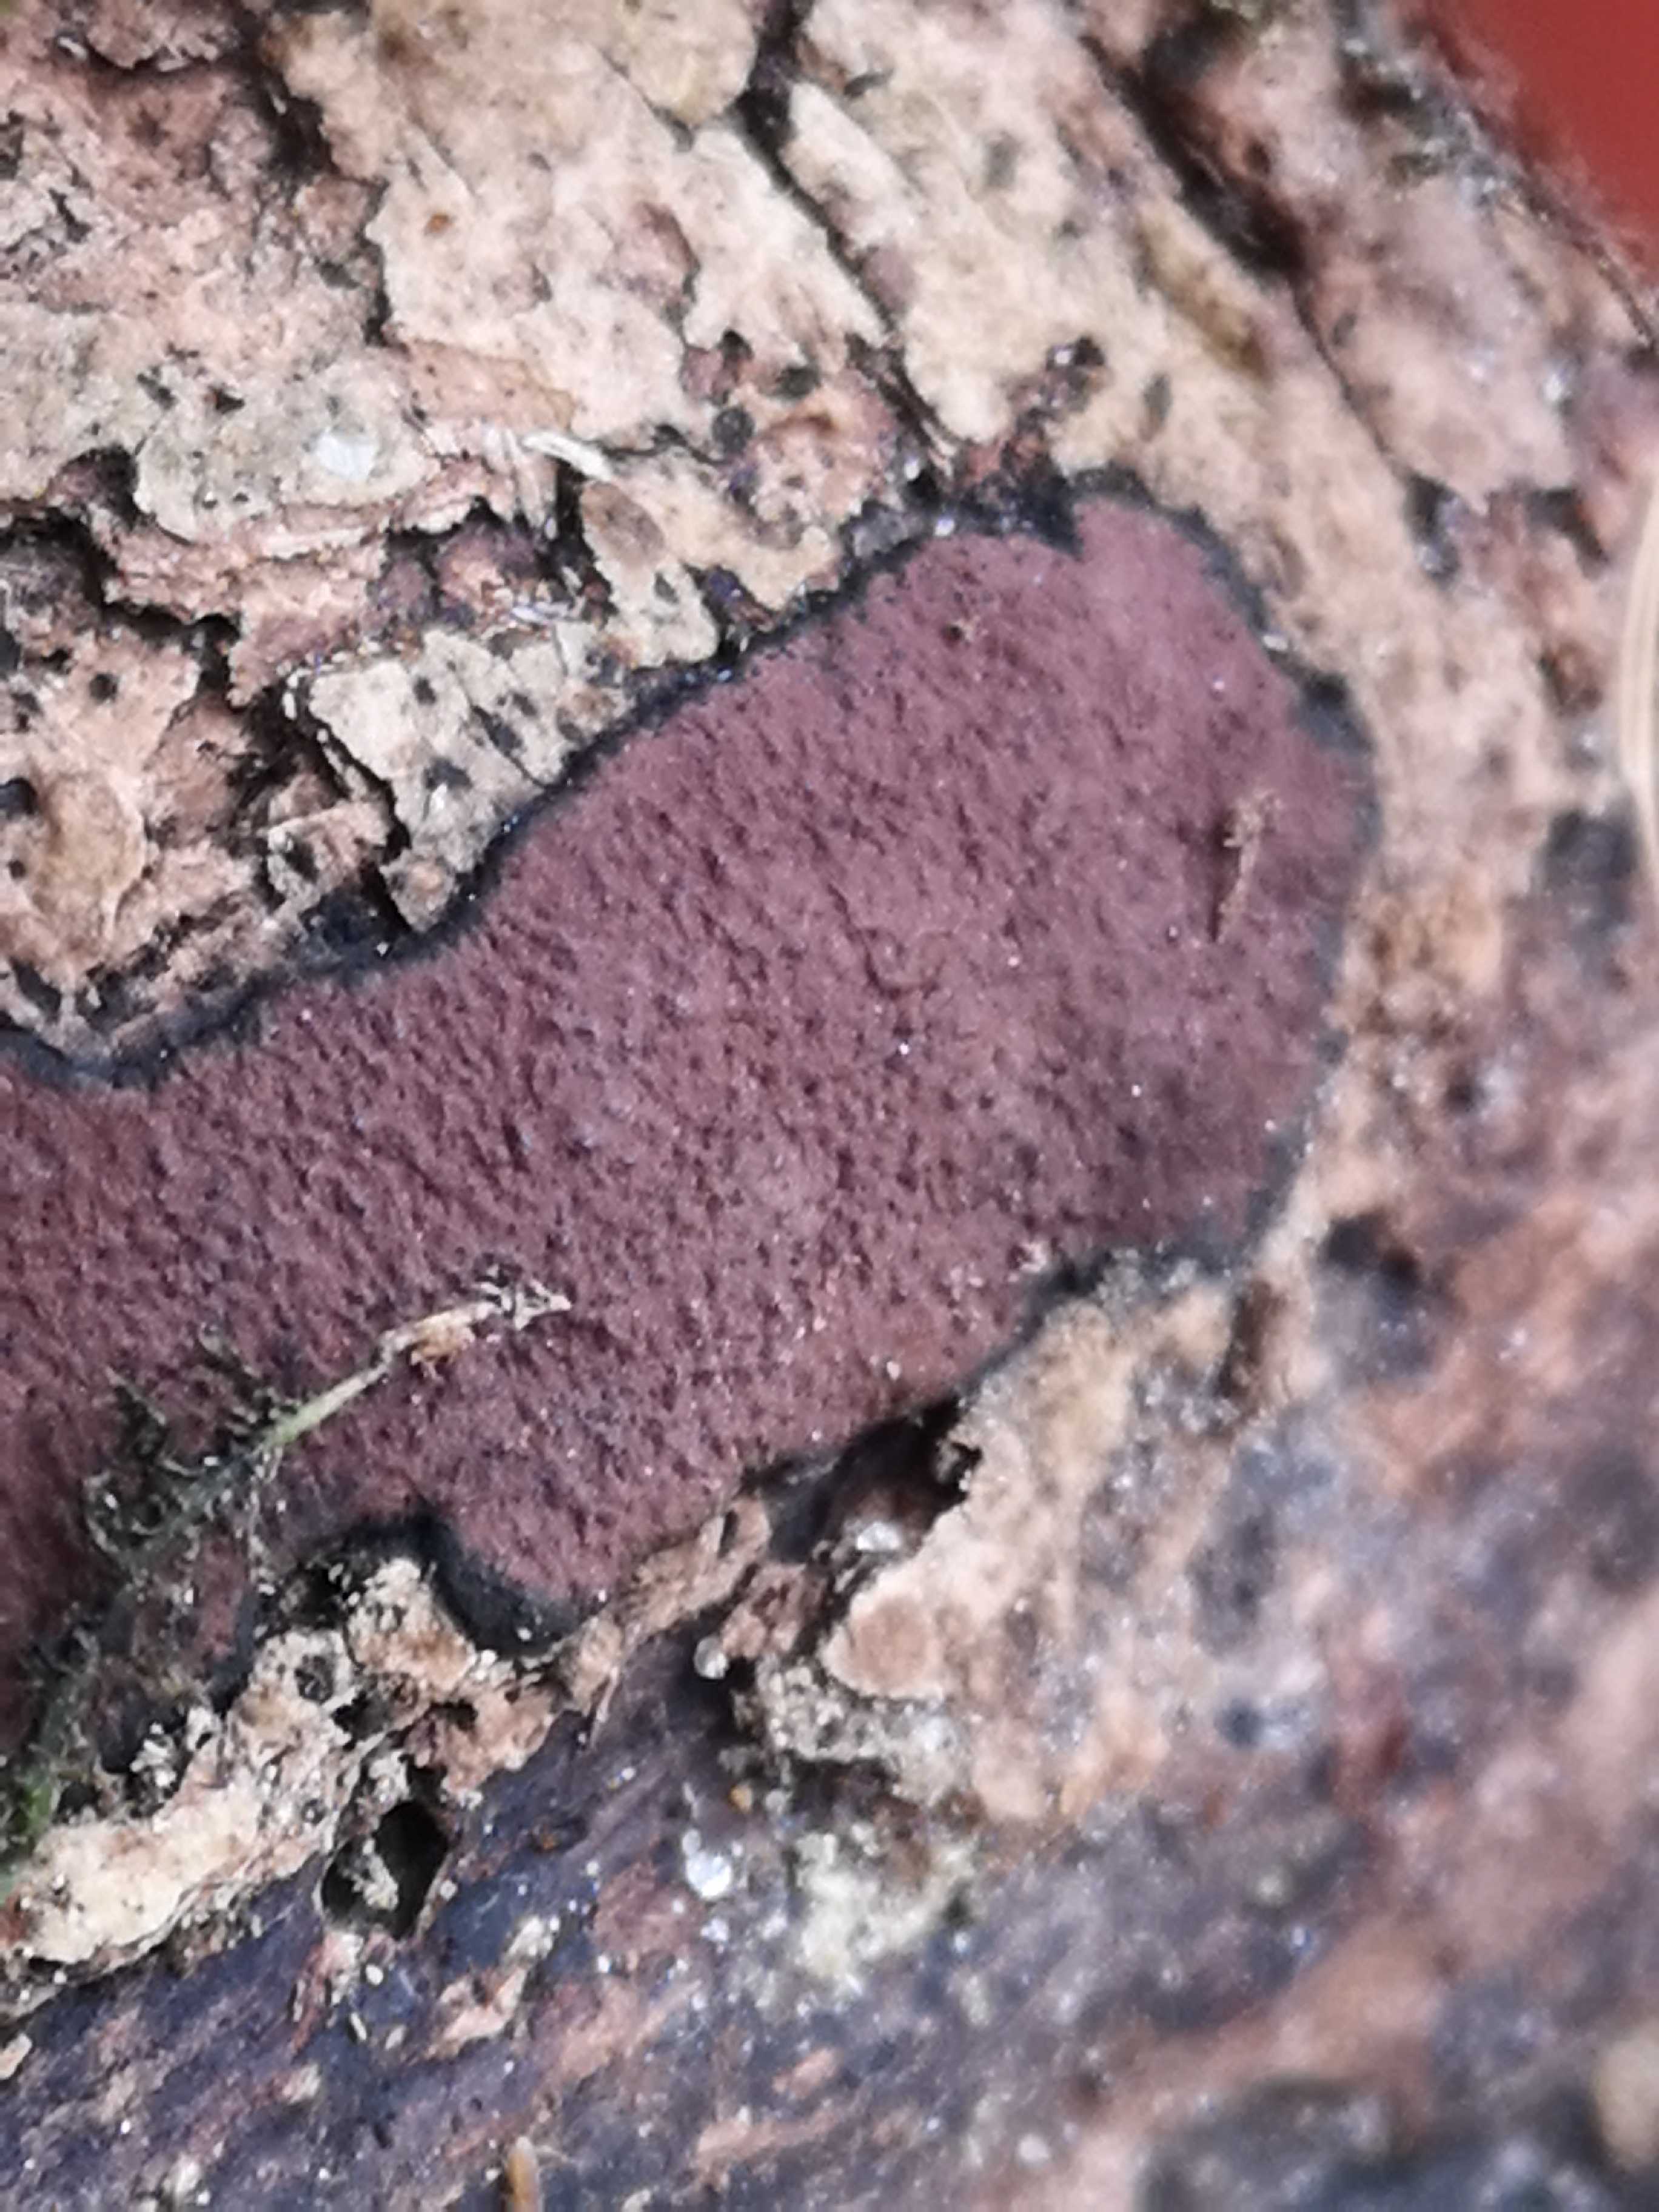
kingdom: Fungi
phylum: Ascomycota
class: Sordariomycetes
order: Xylariales
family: Hypoxylaceae
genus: Hypoxylon
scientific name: Hypoxylon petriniae
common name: nedsænket kulbær
